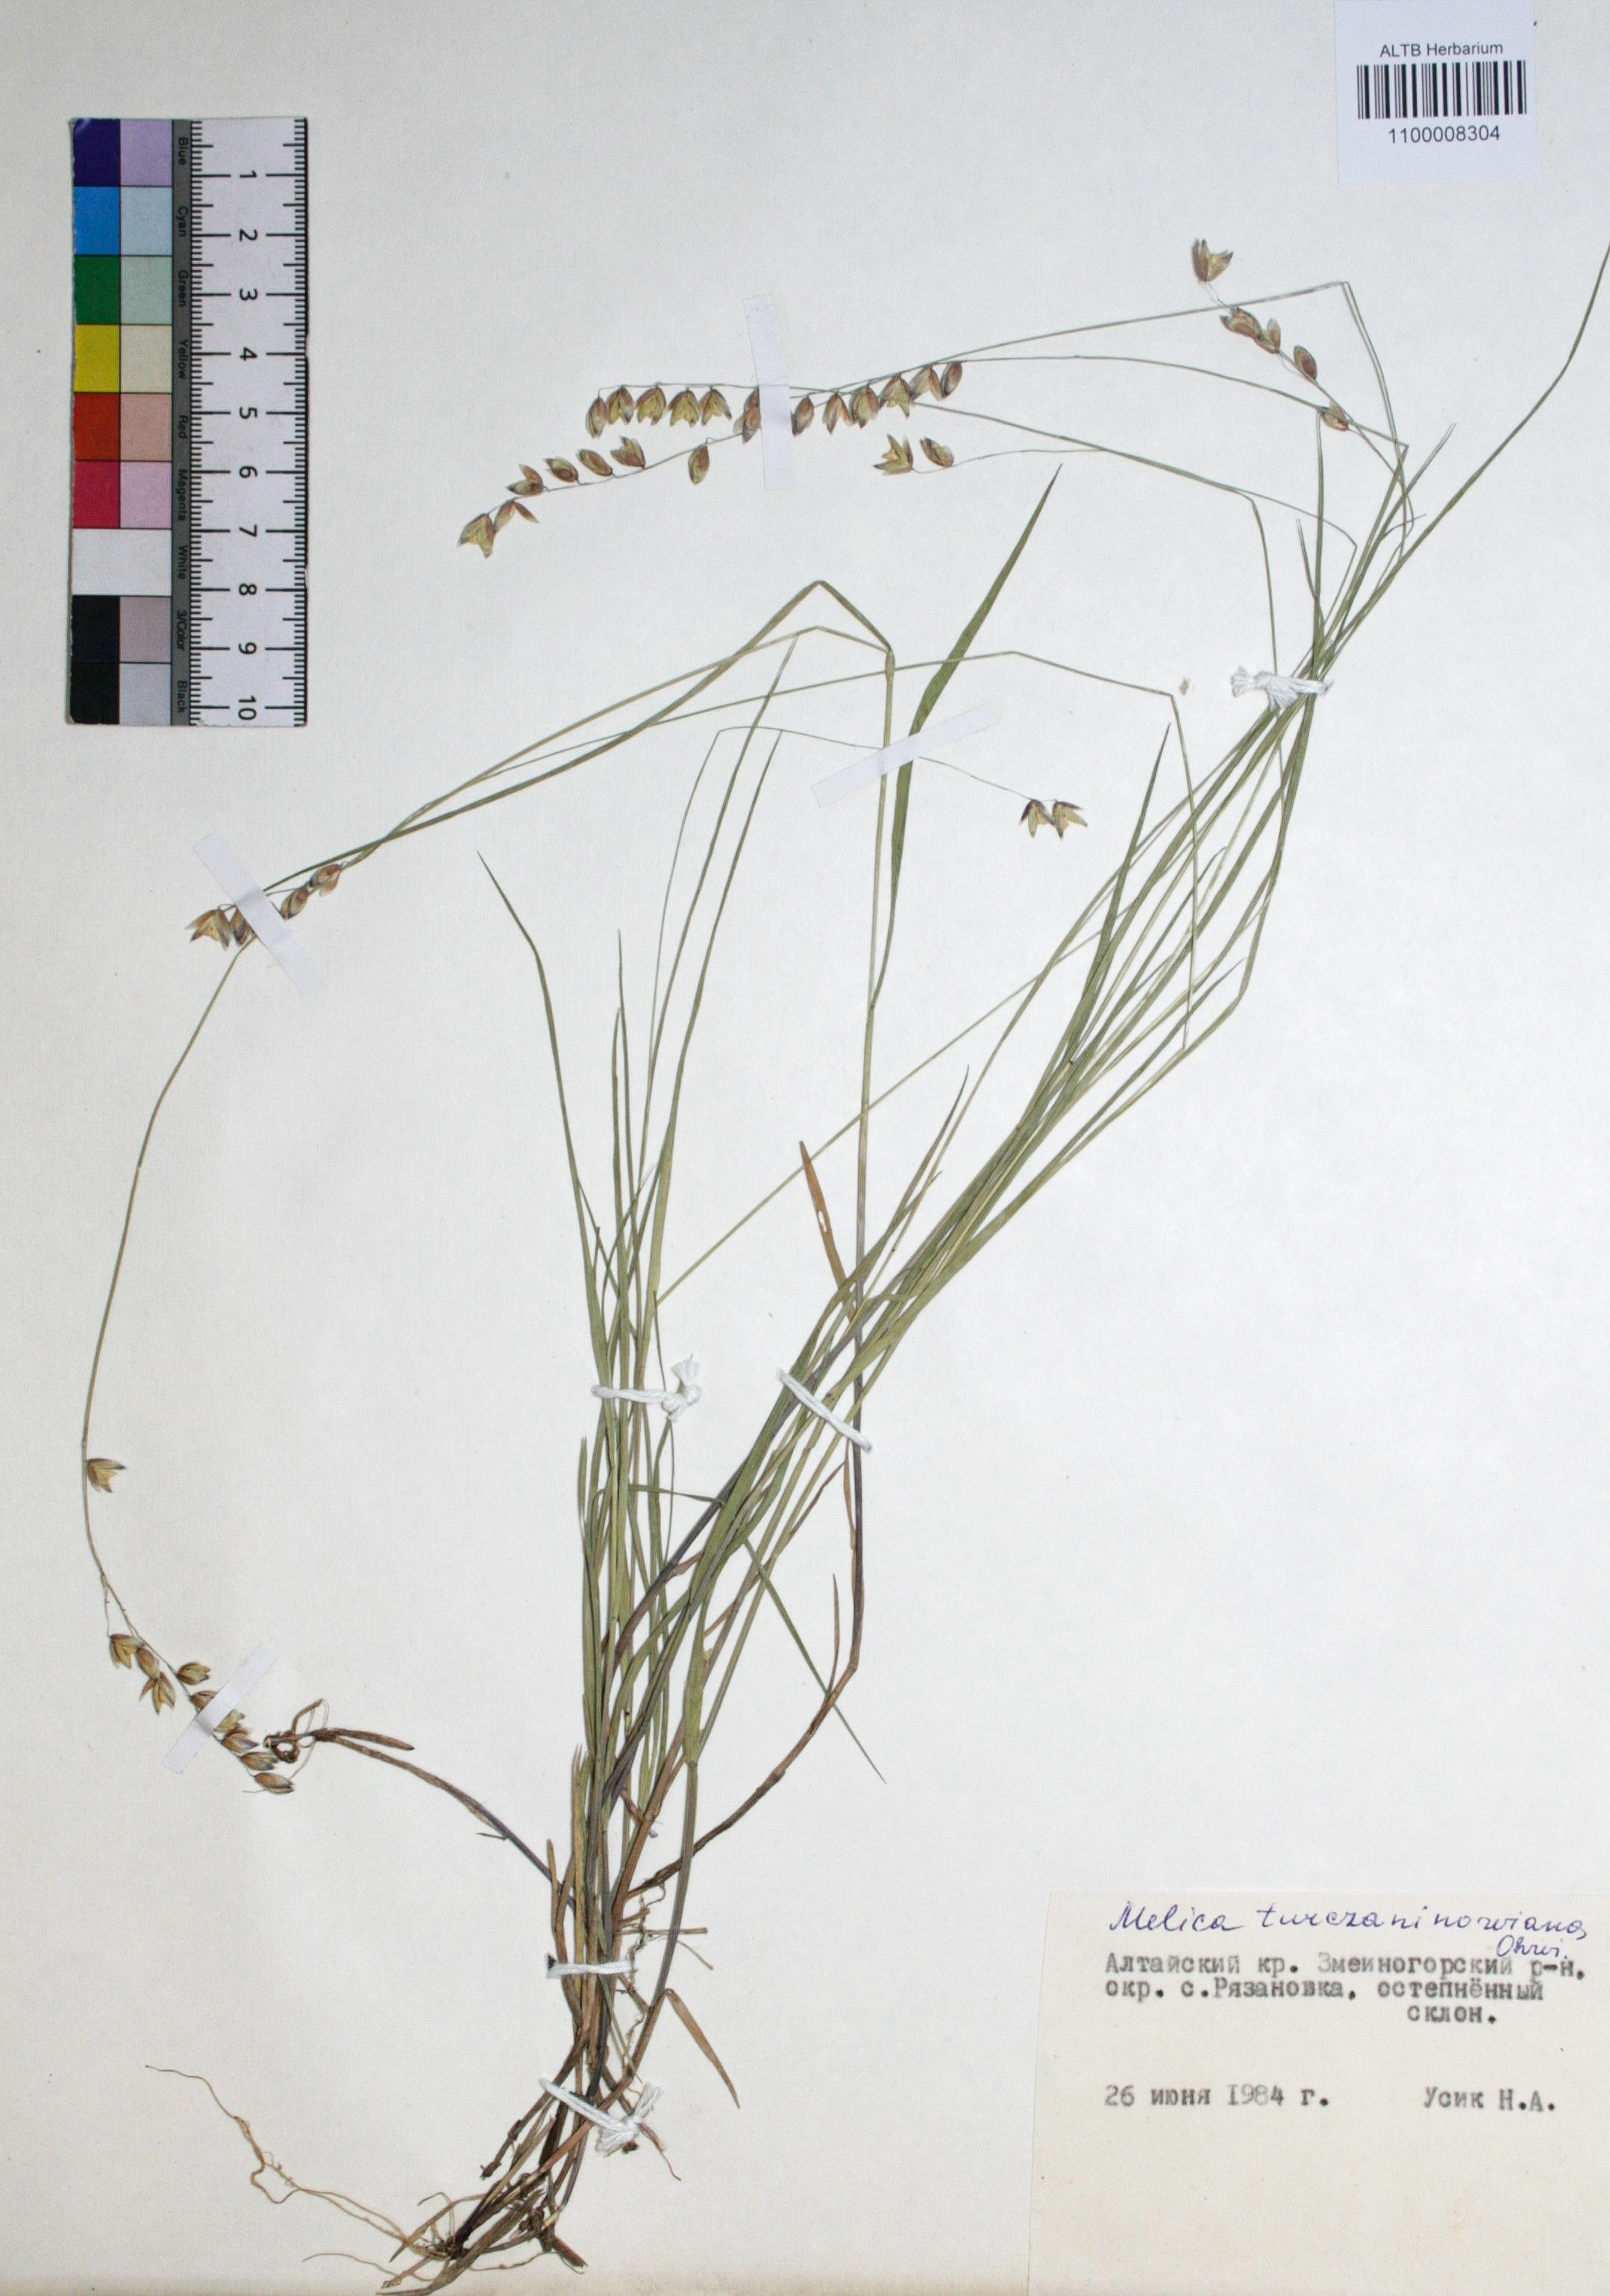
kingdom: Plantae
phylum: Tracheophyta
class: Liliopsida
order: Poales
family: Poaceae
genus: Melica
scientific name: Melica nutans
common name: Mountain melick
